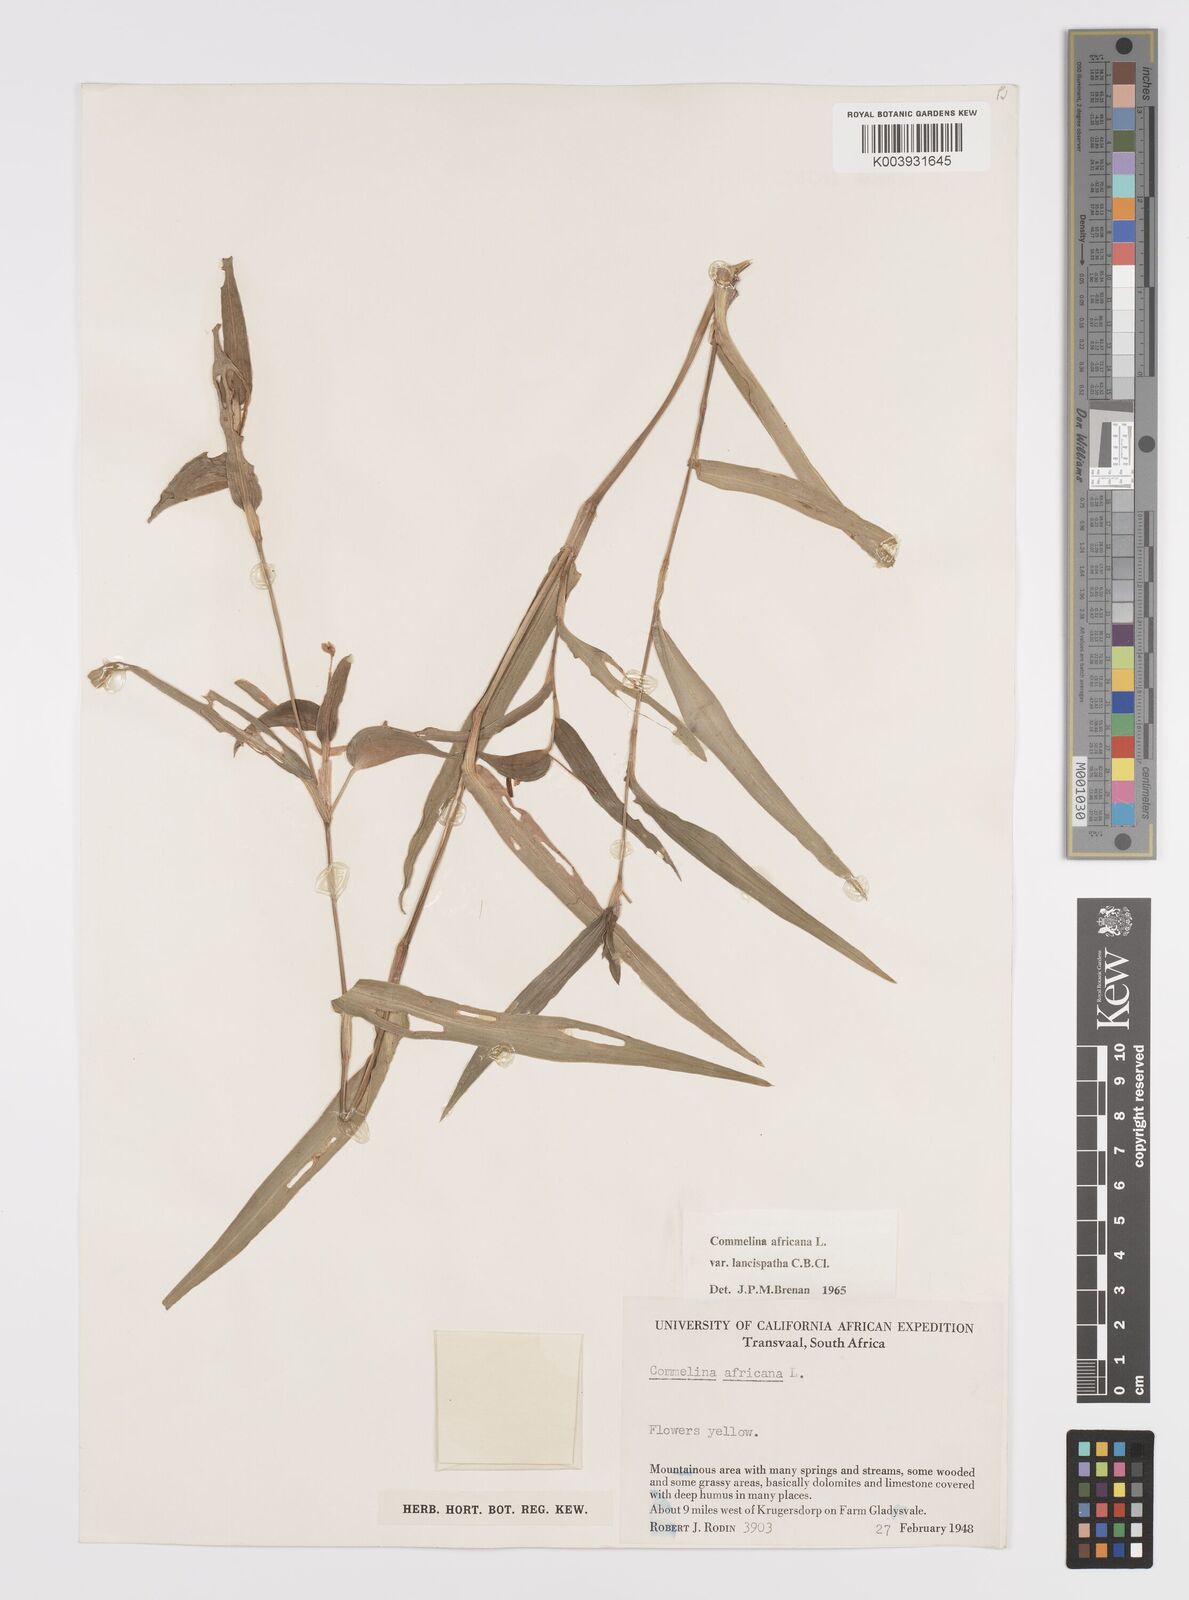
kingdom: Plantae
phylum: Tracheophyta
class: Liliopsida
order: Commelinales
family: Commelinaceae
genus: Commelina
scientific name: Commelina africana
